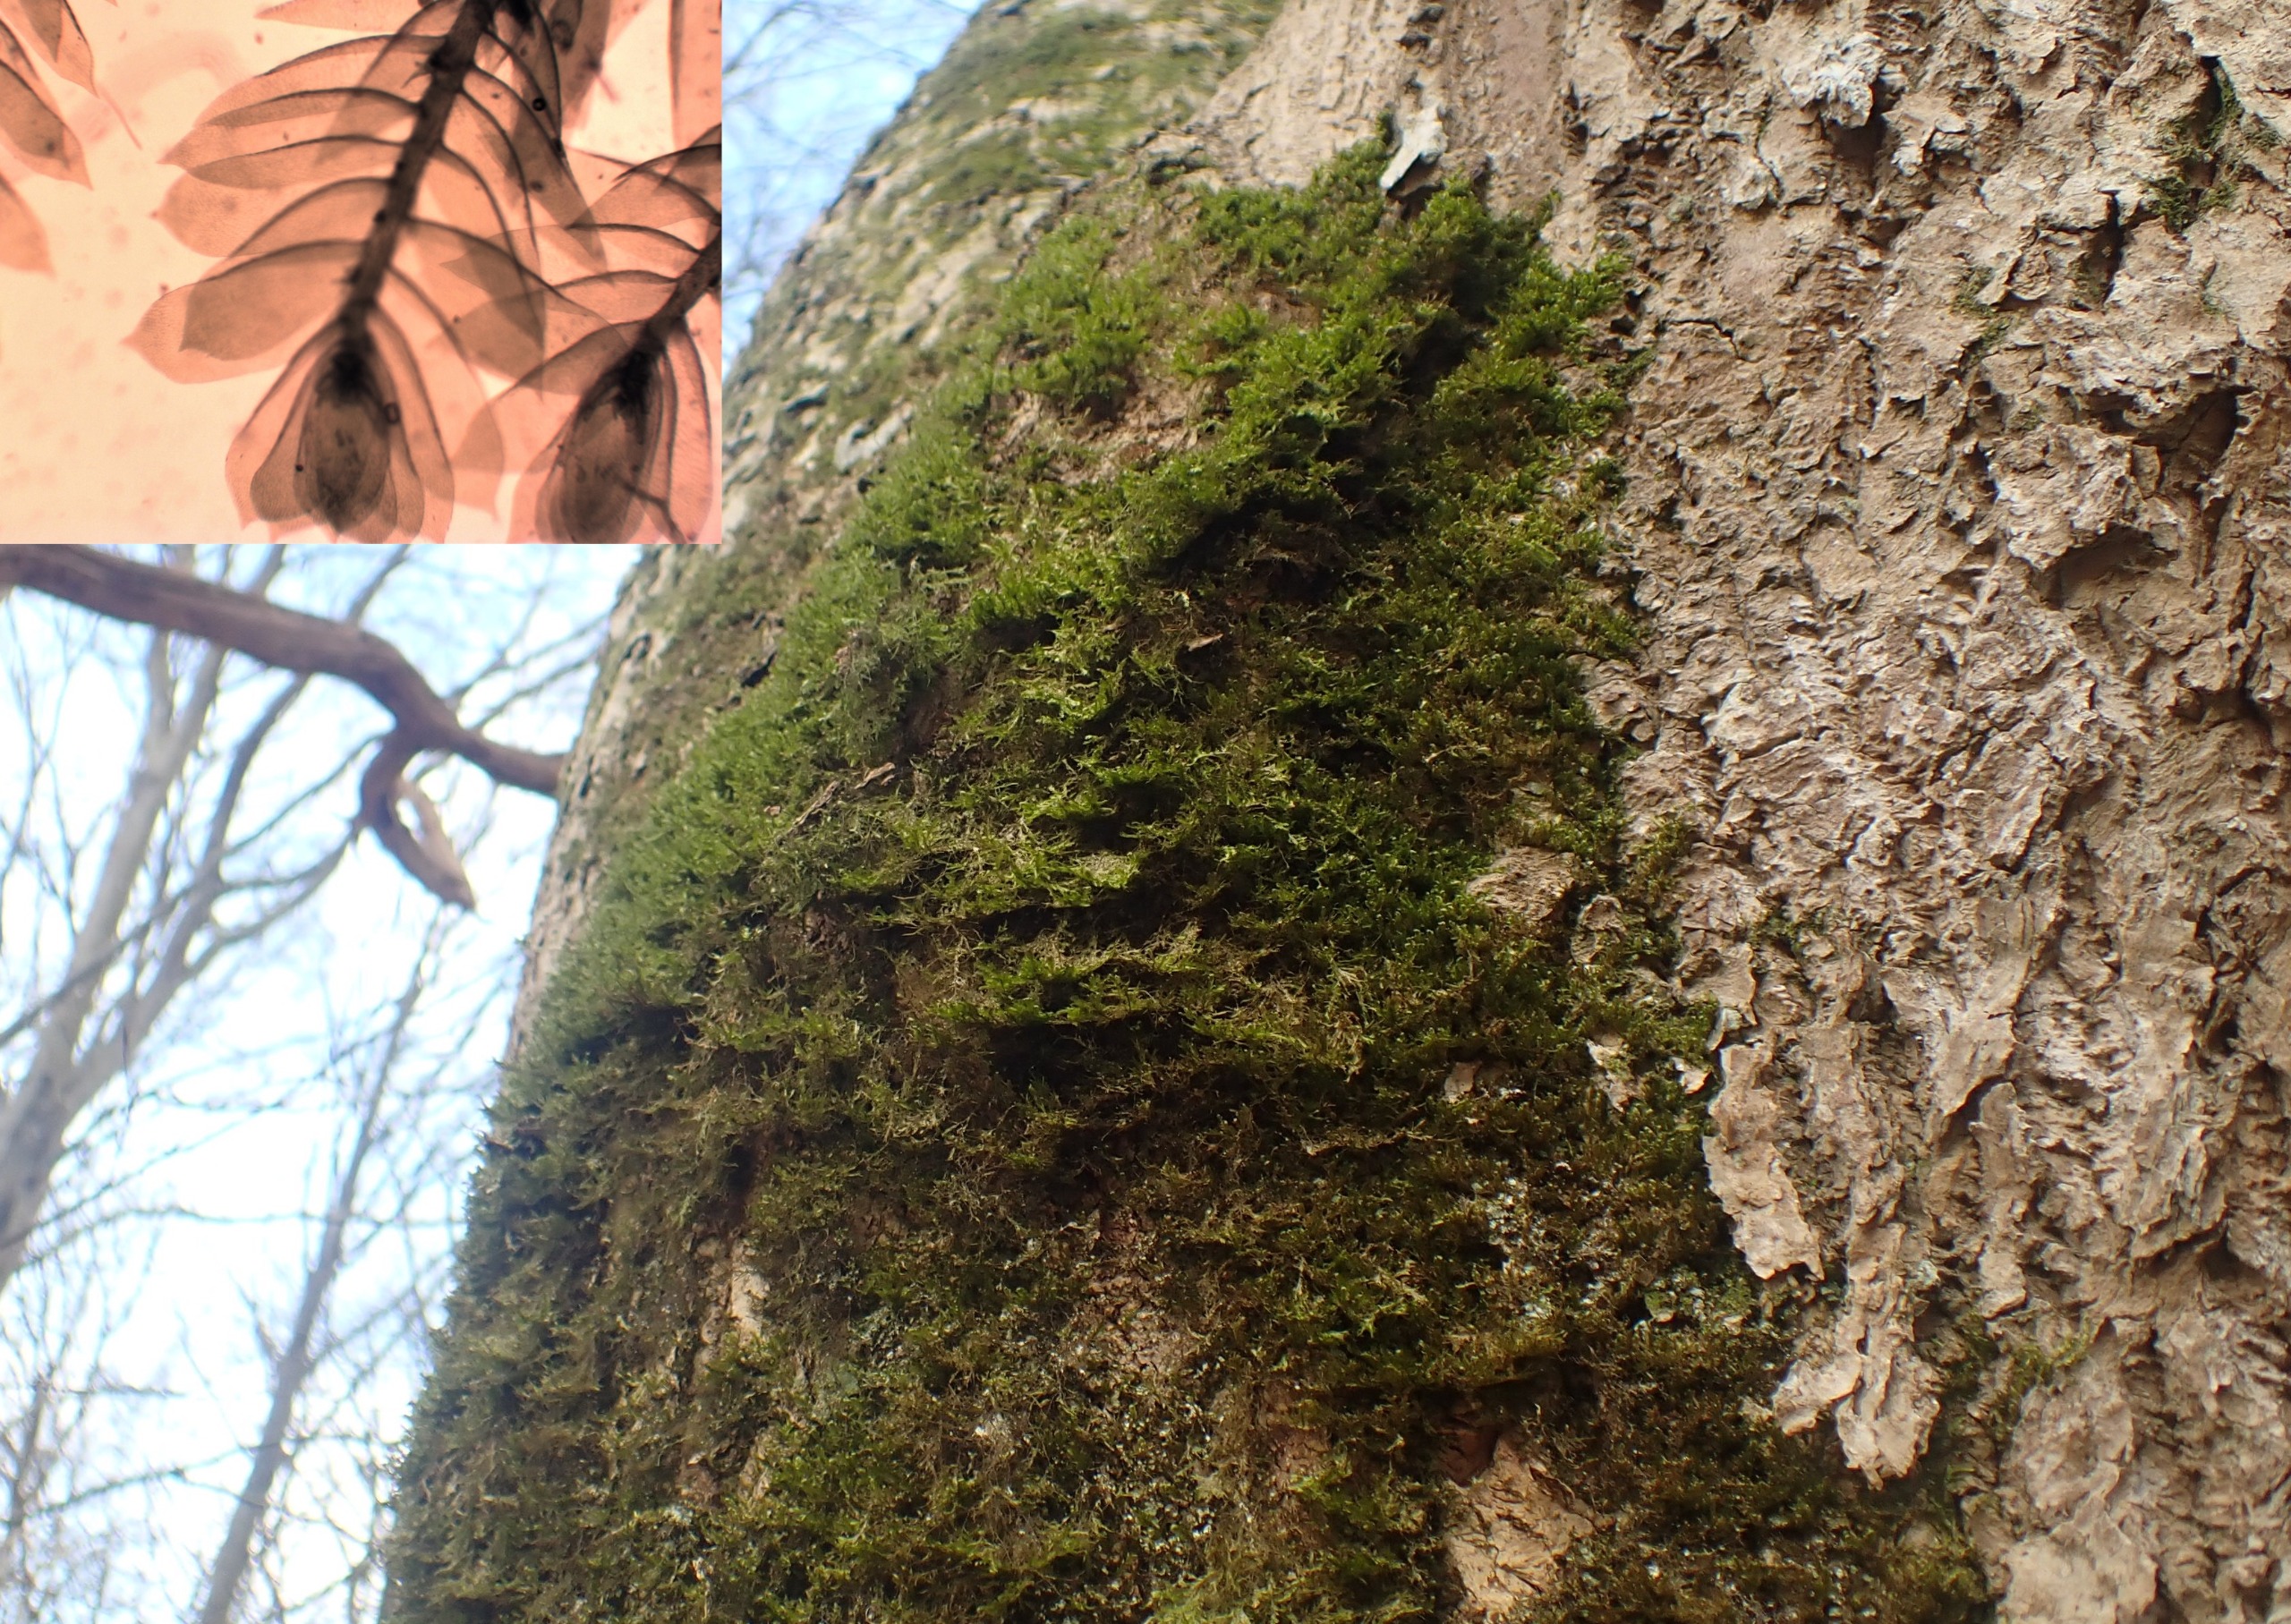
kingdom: Plantae
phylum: Bryophyta
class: Bryopsida
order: Hypnales
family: Neckeraceae
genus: Alleniella
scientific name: Alleniella complanata
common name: Almindelig fladmos
